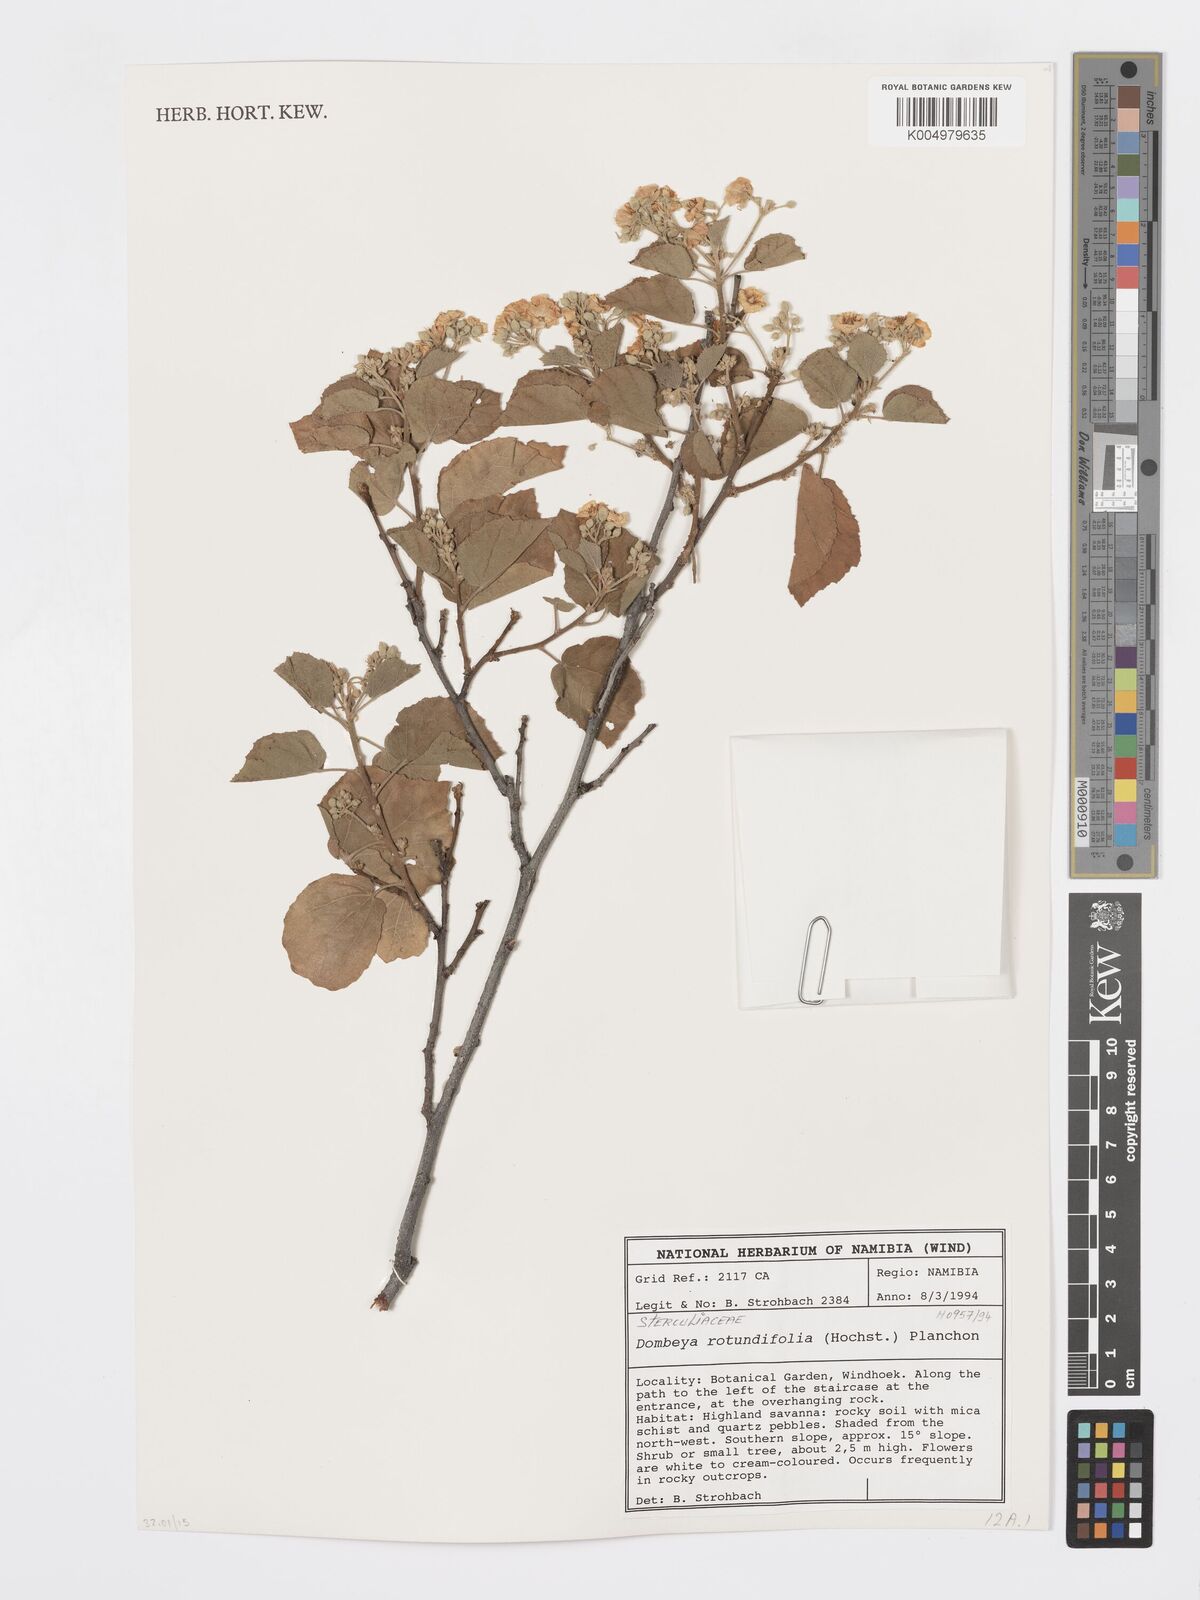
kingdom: Plantae
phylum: Tracheophyta
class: Magnoliopsida
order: Malvales
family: Malvaceae
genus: Dombeya
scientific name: Dombeya rotundifolia
